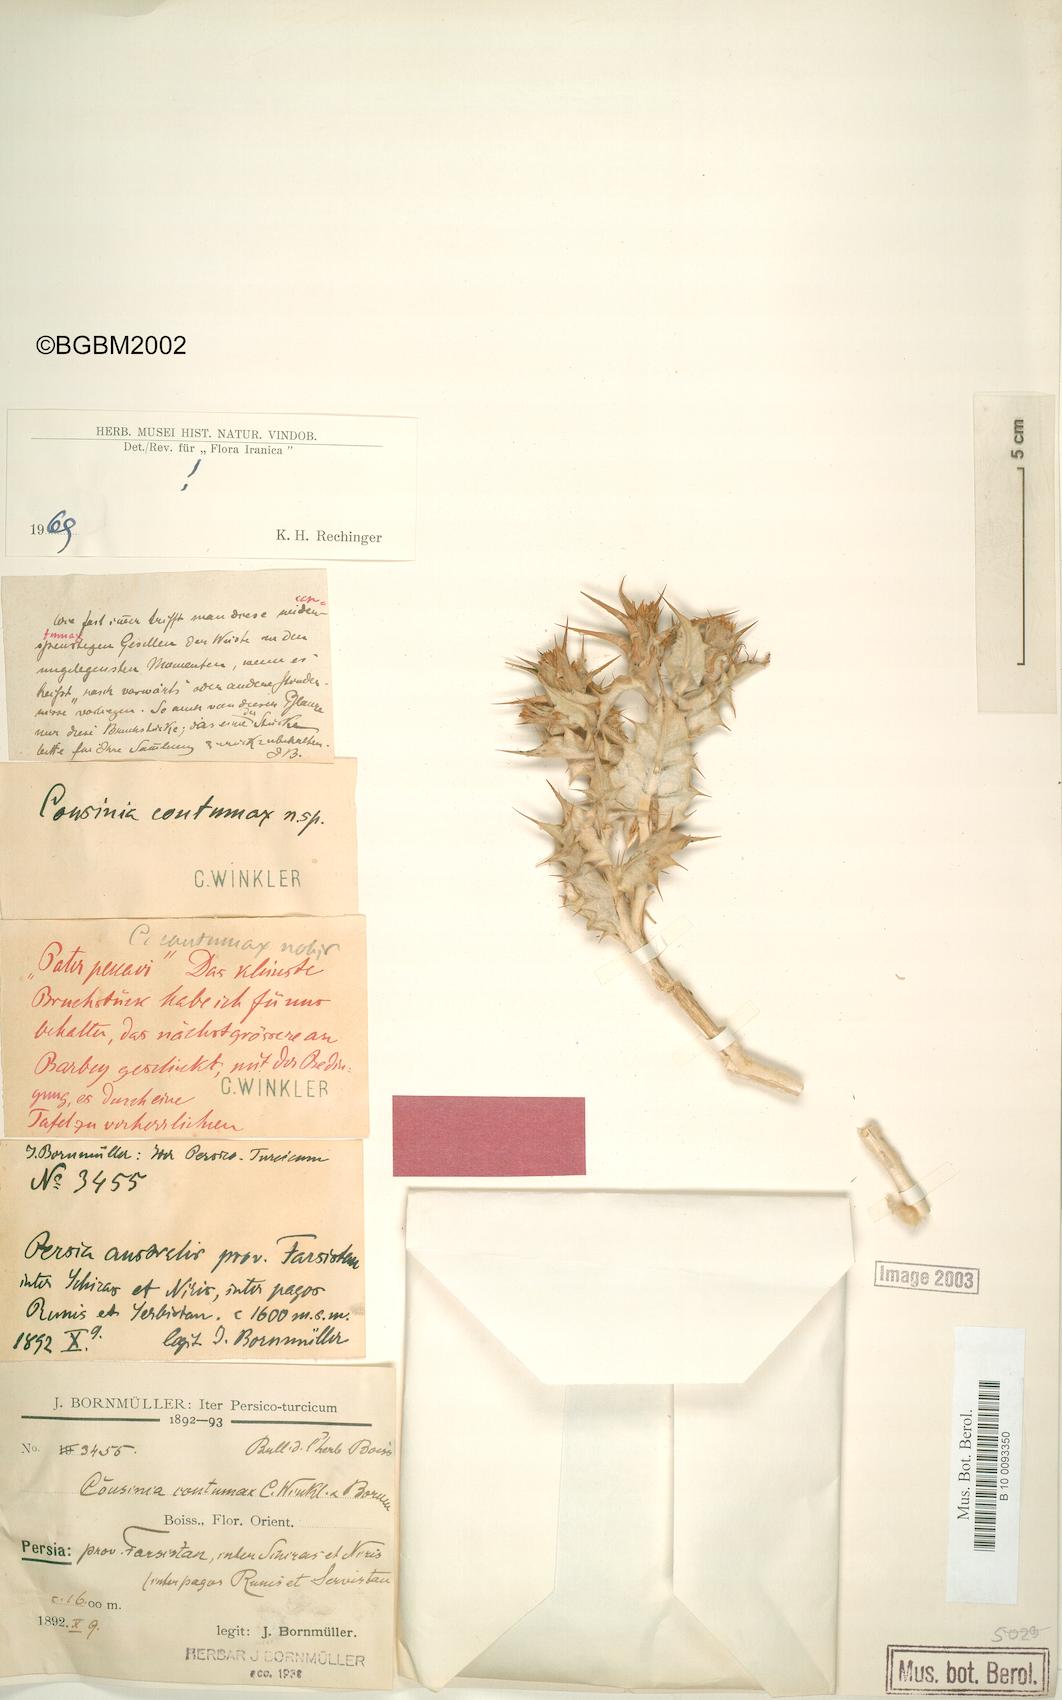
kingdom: Plantae
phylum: Tracheophyta
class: Magnoliopsida
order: Asterales
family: Asteraceae
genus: Cousinia
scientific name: Cousinia contumax
